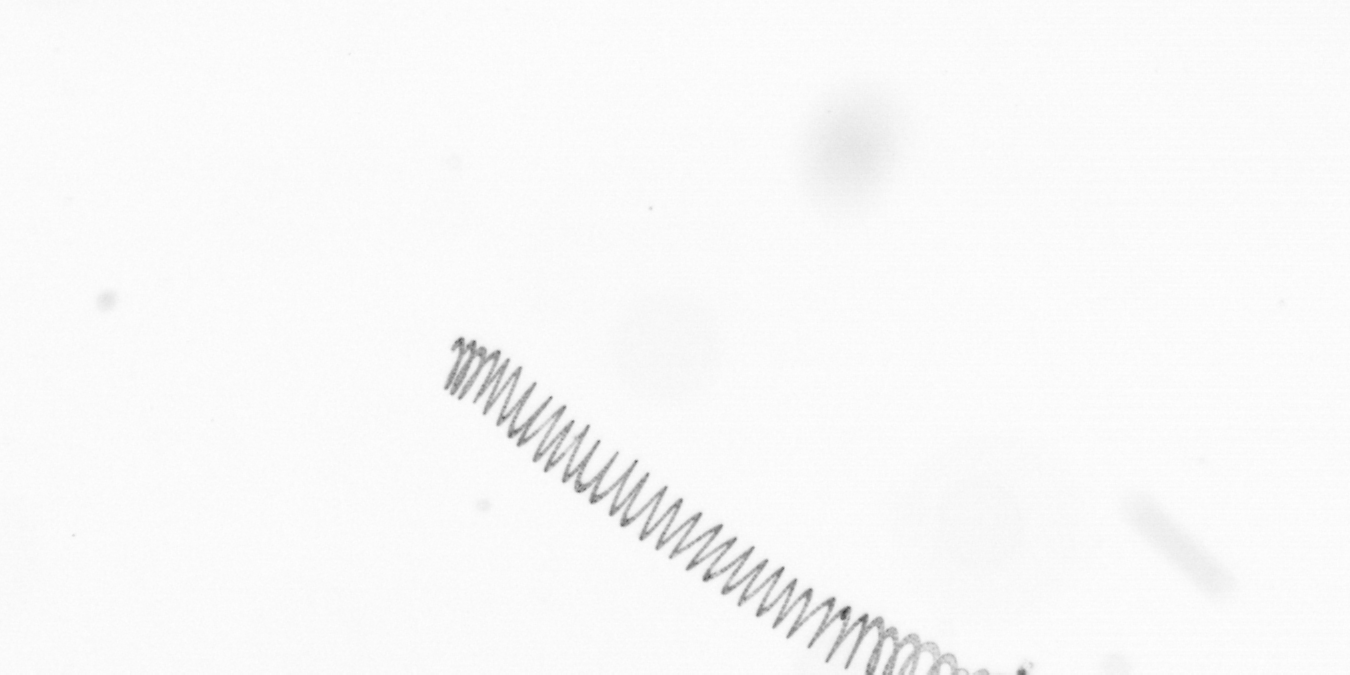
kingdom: Chromista
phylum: Ochrophyta
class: Bacillariophyceae
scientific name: Bacillariophyceae
